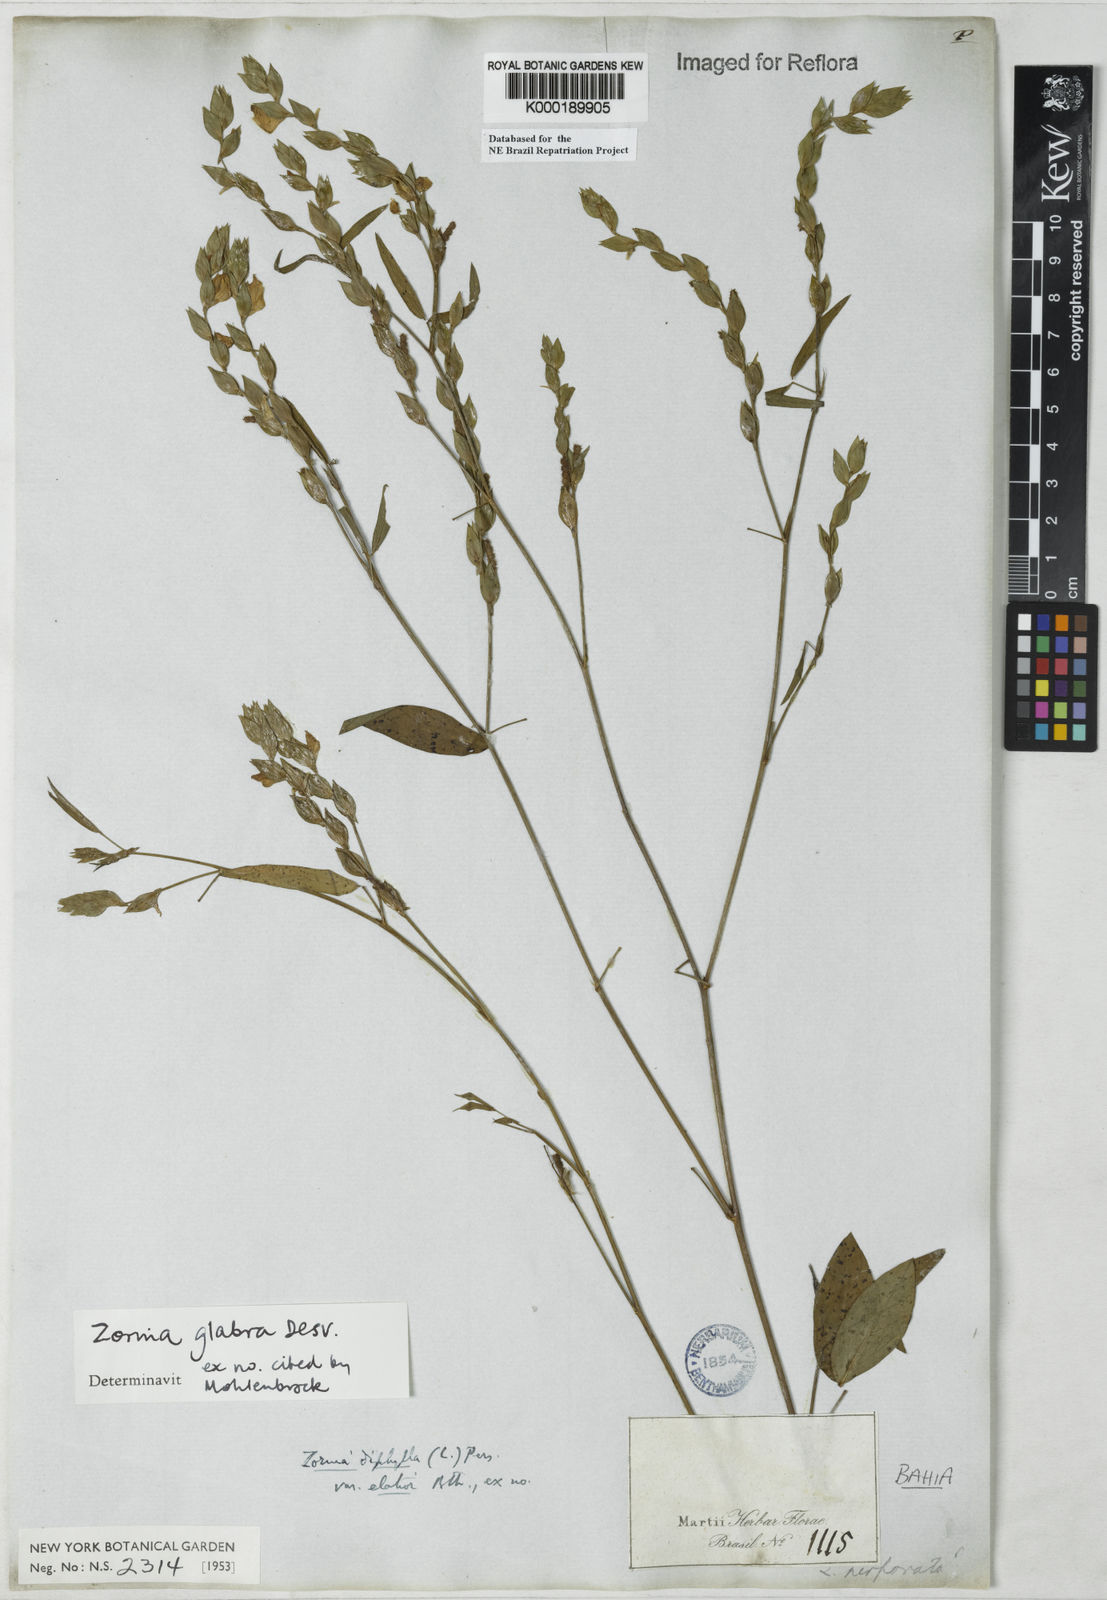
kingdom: Plantae
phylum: Tracheophyta
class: Magnoliopsida
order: Fabales
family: Fabaceae
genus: Zornia
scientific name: Zornia glabra
